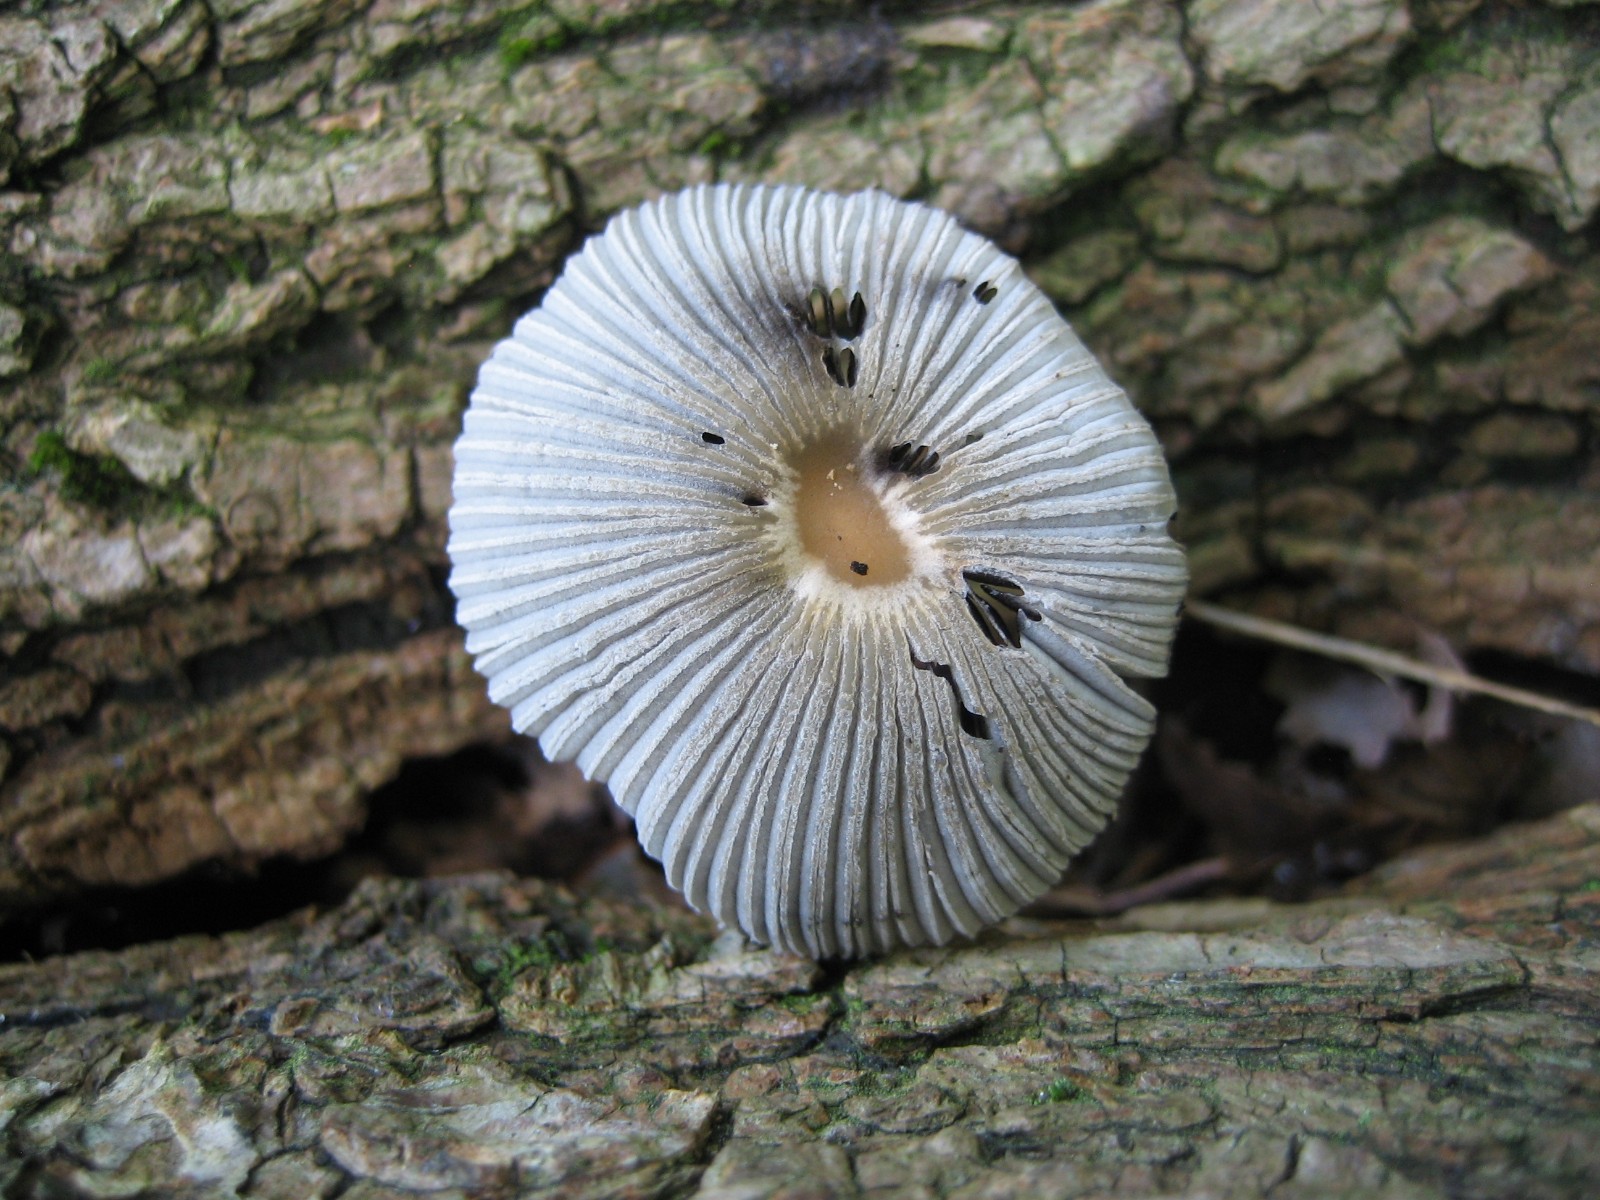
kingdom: Fungi
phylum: Basidiomycota
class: Agaricomycetes
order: Agaricales
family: Psathyrellaceae
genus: Parasola
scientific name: Parasola
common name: hjulhat
